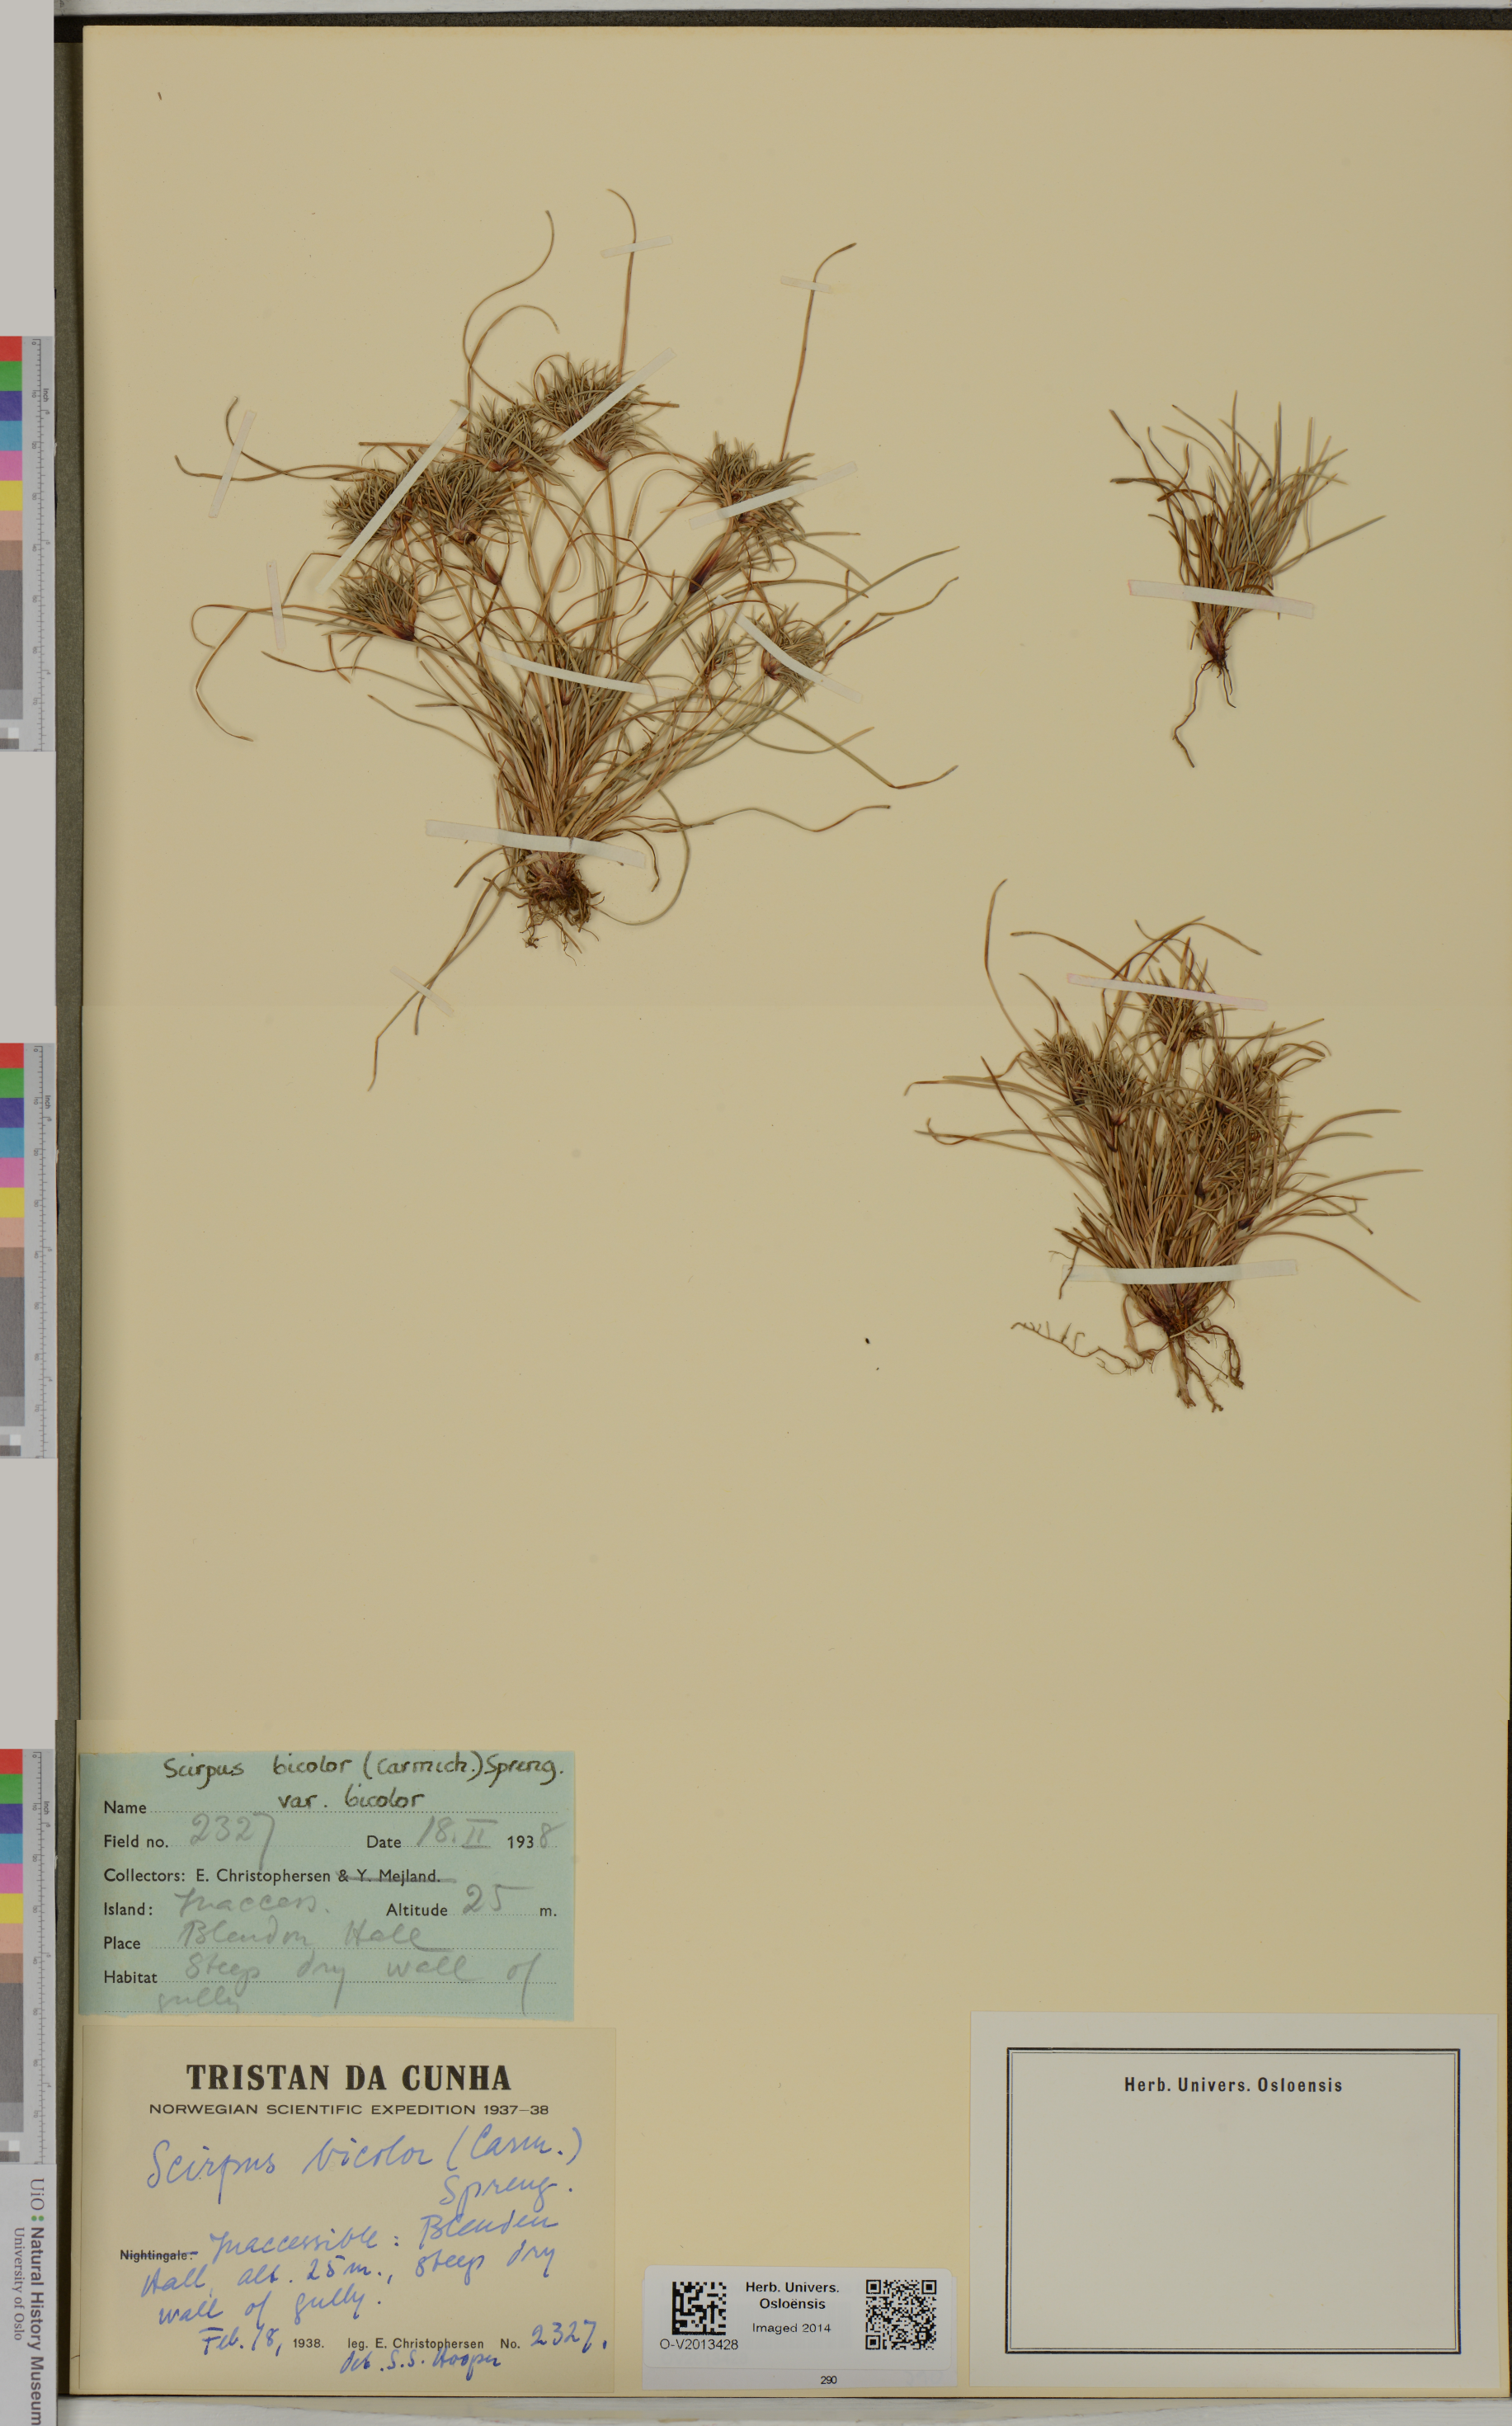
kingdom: Plantae
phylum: Tracheophyta
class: Liliopsida
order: Poales
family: Cyperaceae
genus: Isolepis
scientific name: Isolepis bicolor
